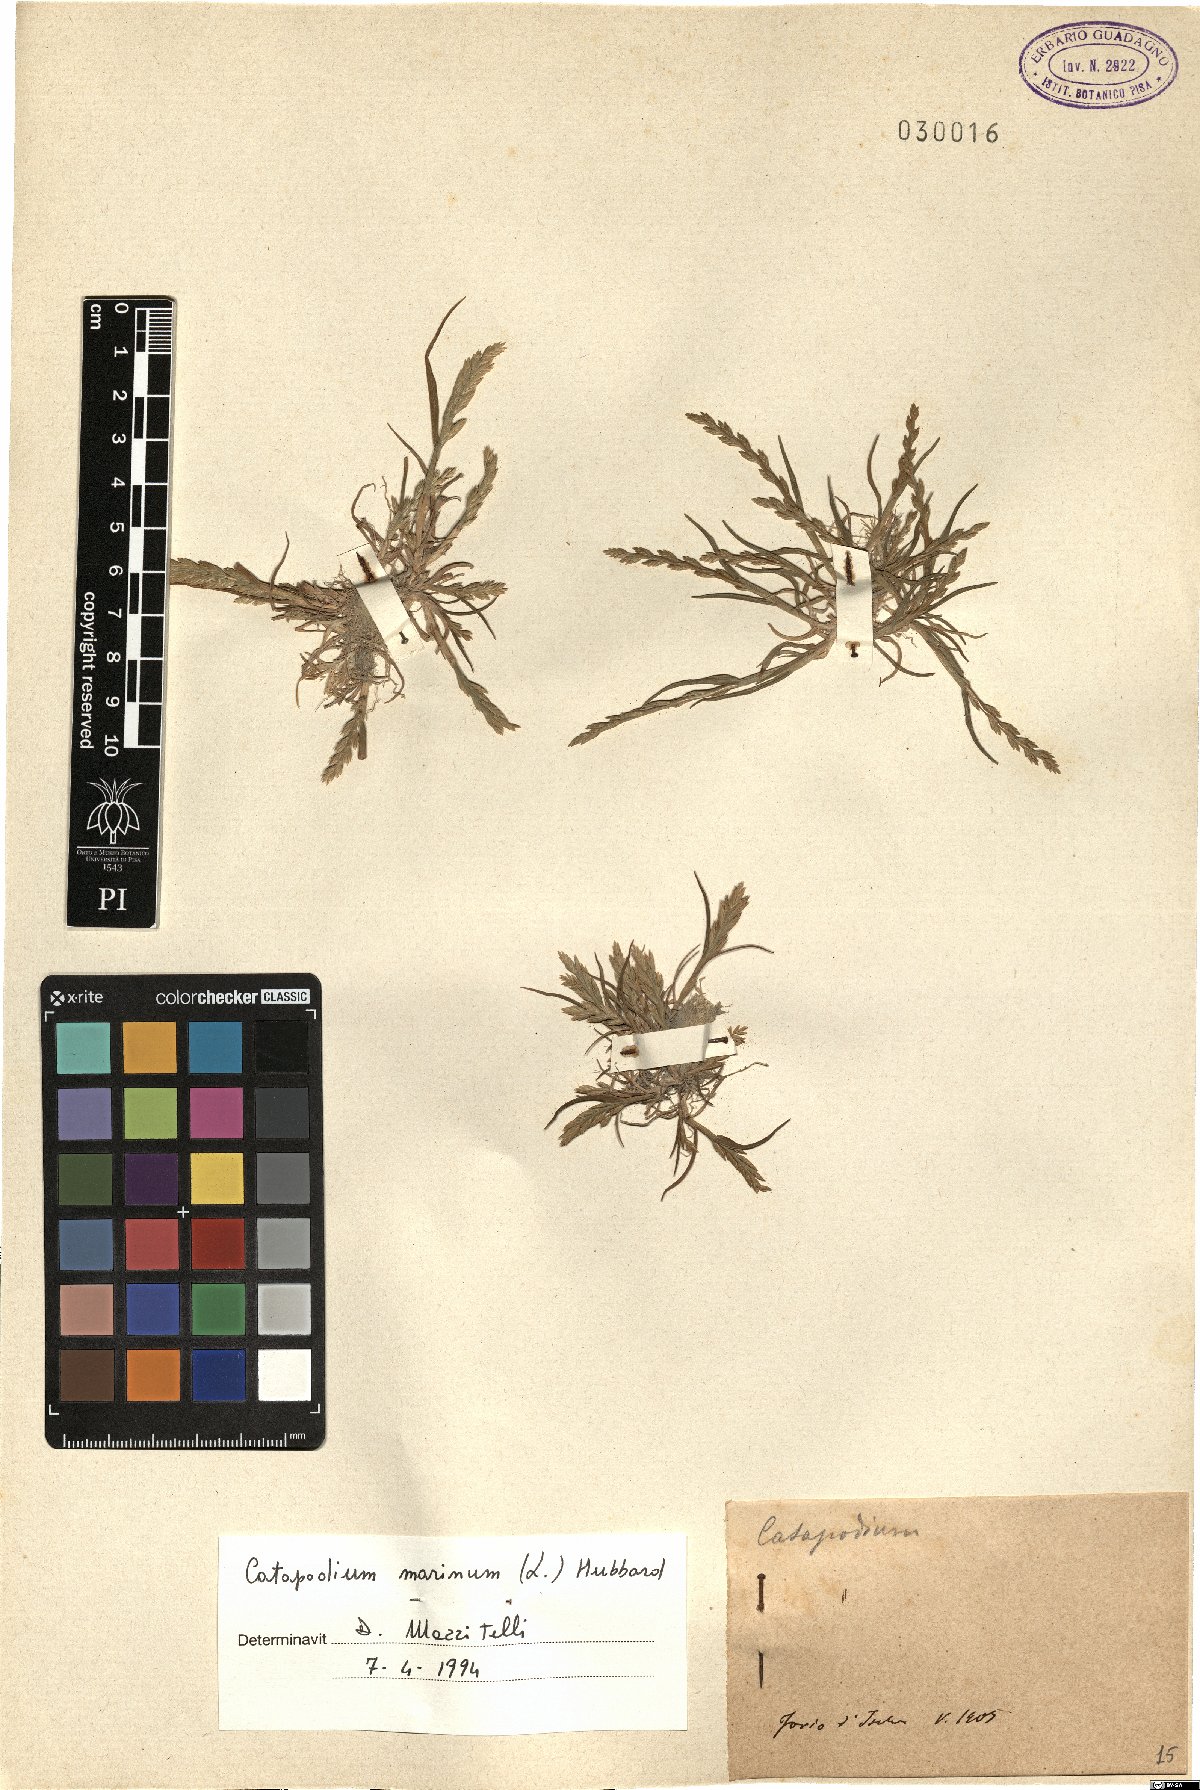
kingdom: Plantae
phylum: Tracheophyta
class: Liliopsida
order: Poales
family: Poaceae
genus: Catapodium
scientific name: Catapodium marinum
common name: Sea fern-grass
